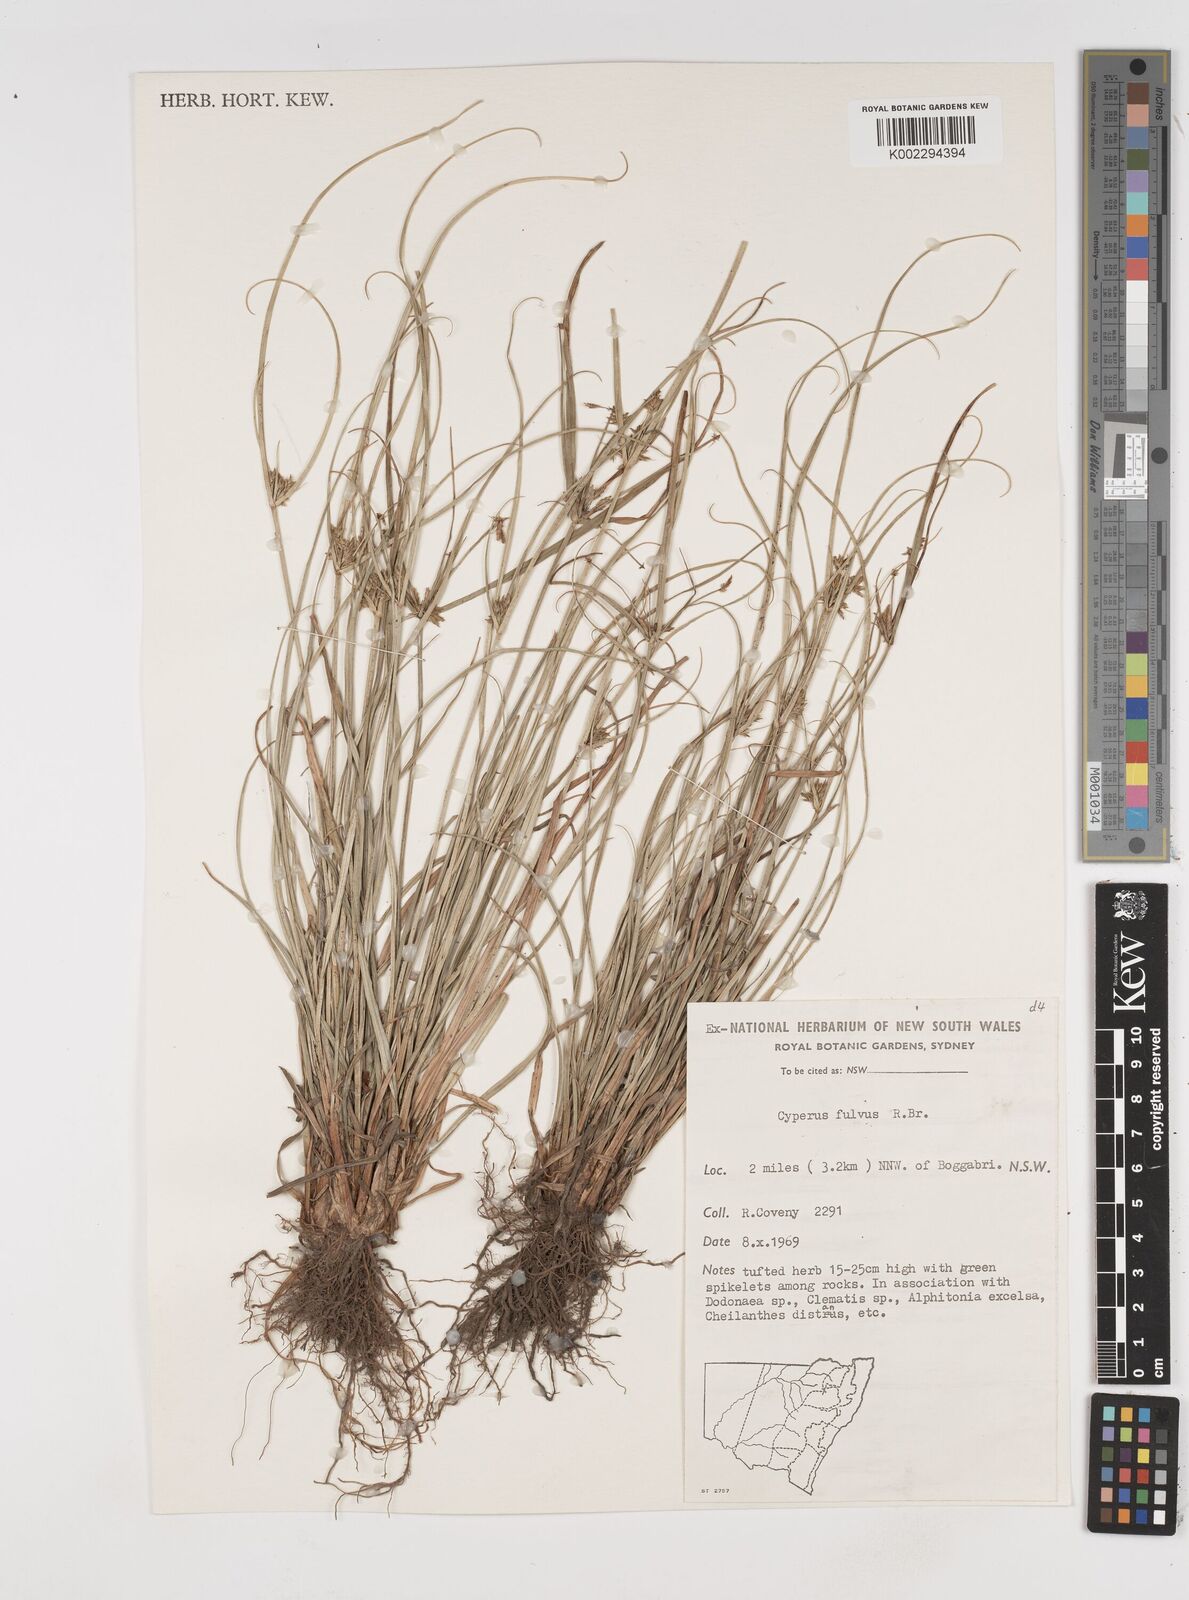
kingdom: Plantae
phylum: Tracheophyta
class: Liliopsida
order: Poales
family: Cyperaceae
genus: Cyperus
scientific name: Cyperus fulvus
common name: Sticky sedge
